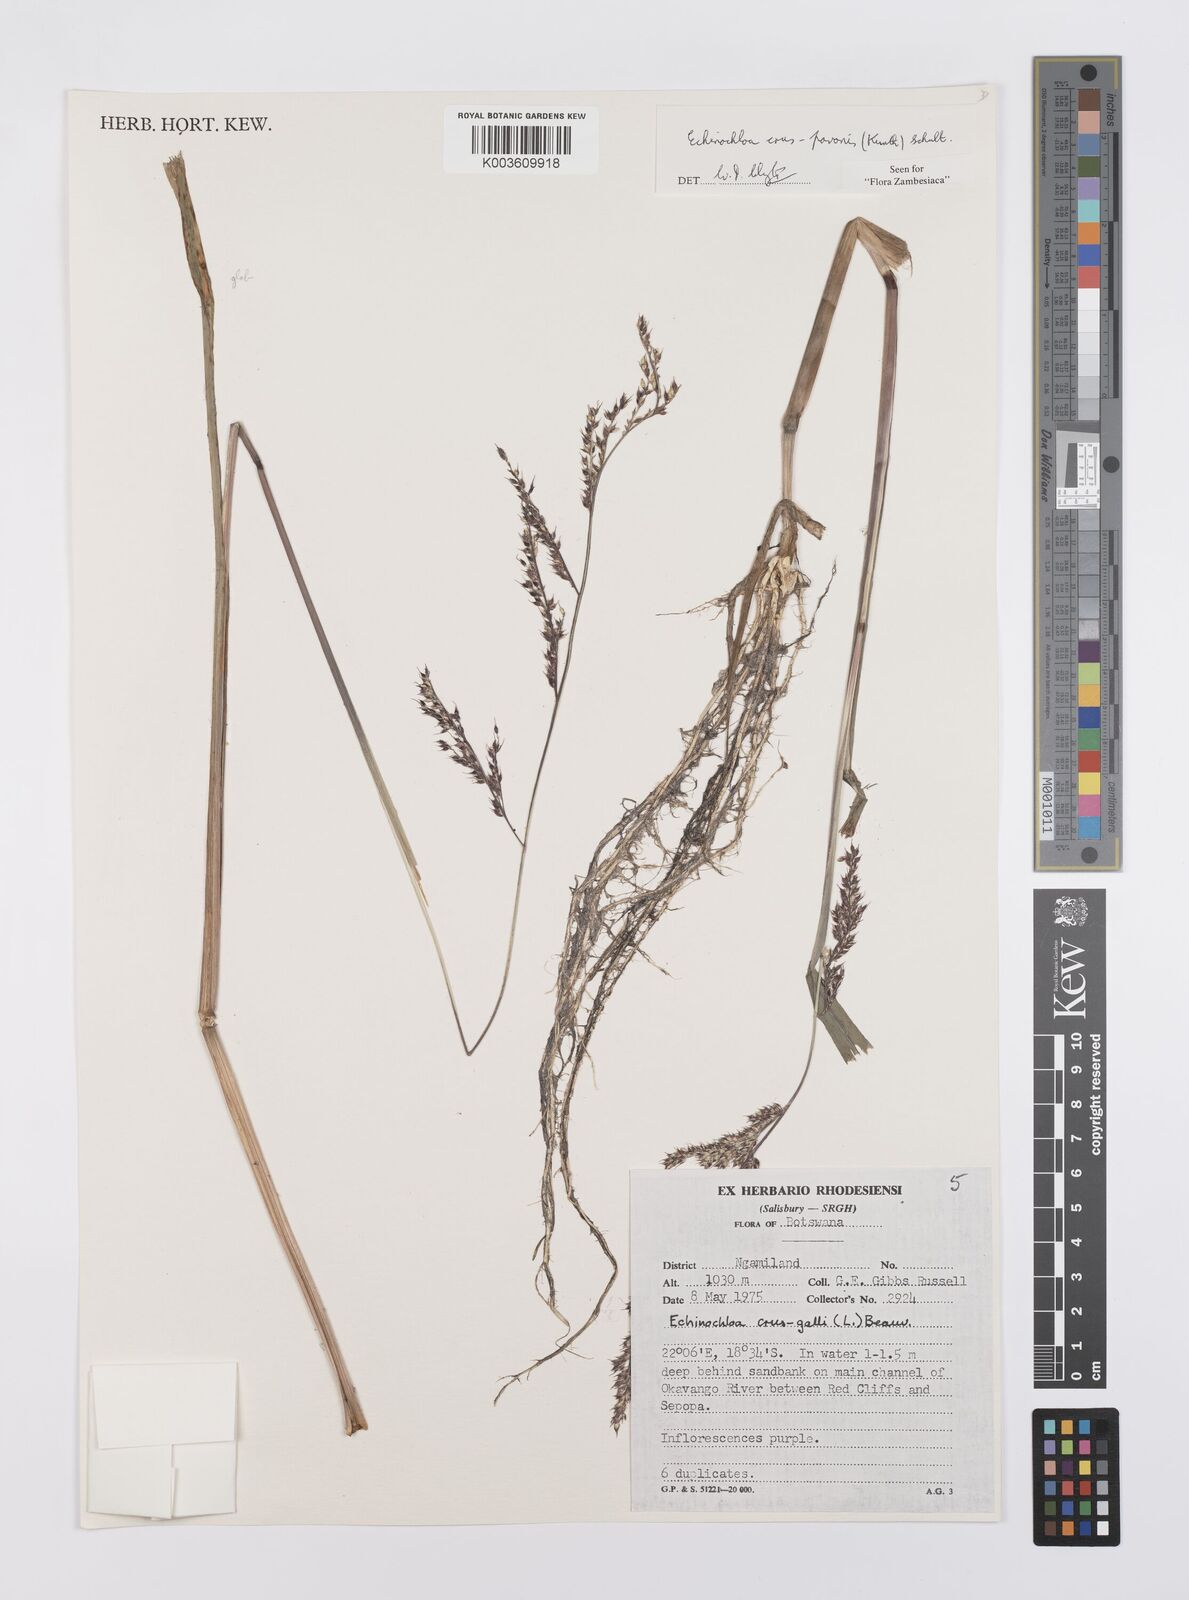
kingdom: Plantae
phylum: Tracheophyta
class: Liliopsida
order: Poales
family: Poaceae
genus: Echinochloa
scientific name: Echinochloa crus-pavonis
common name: Gulf cockspur grass
